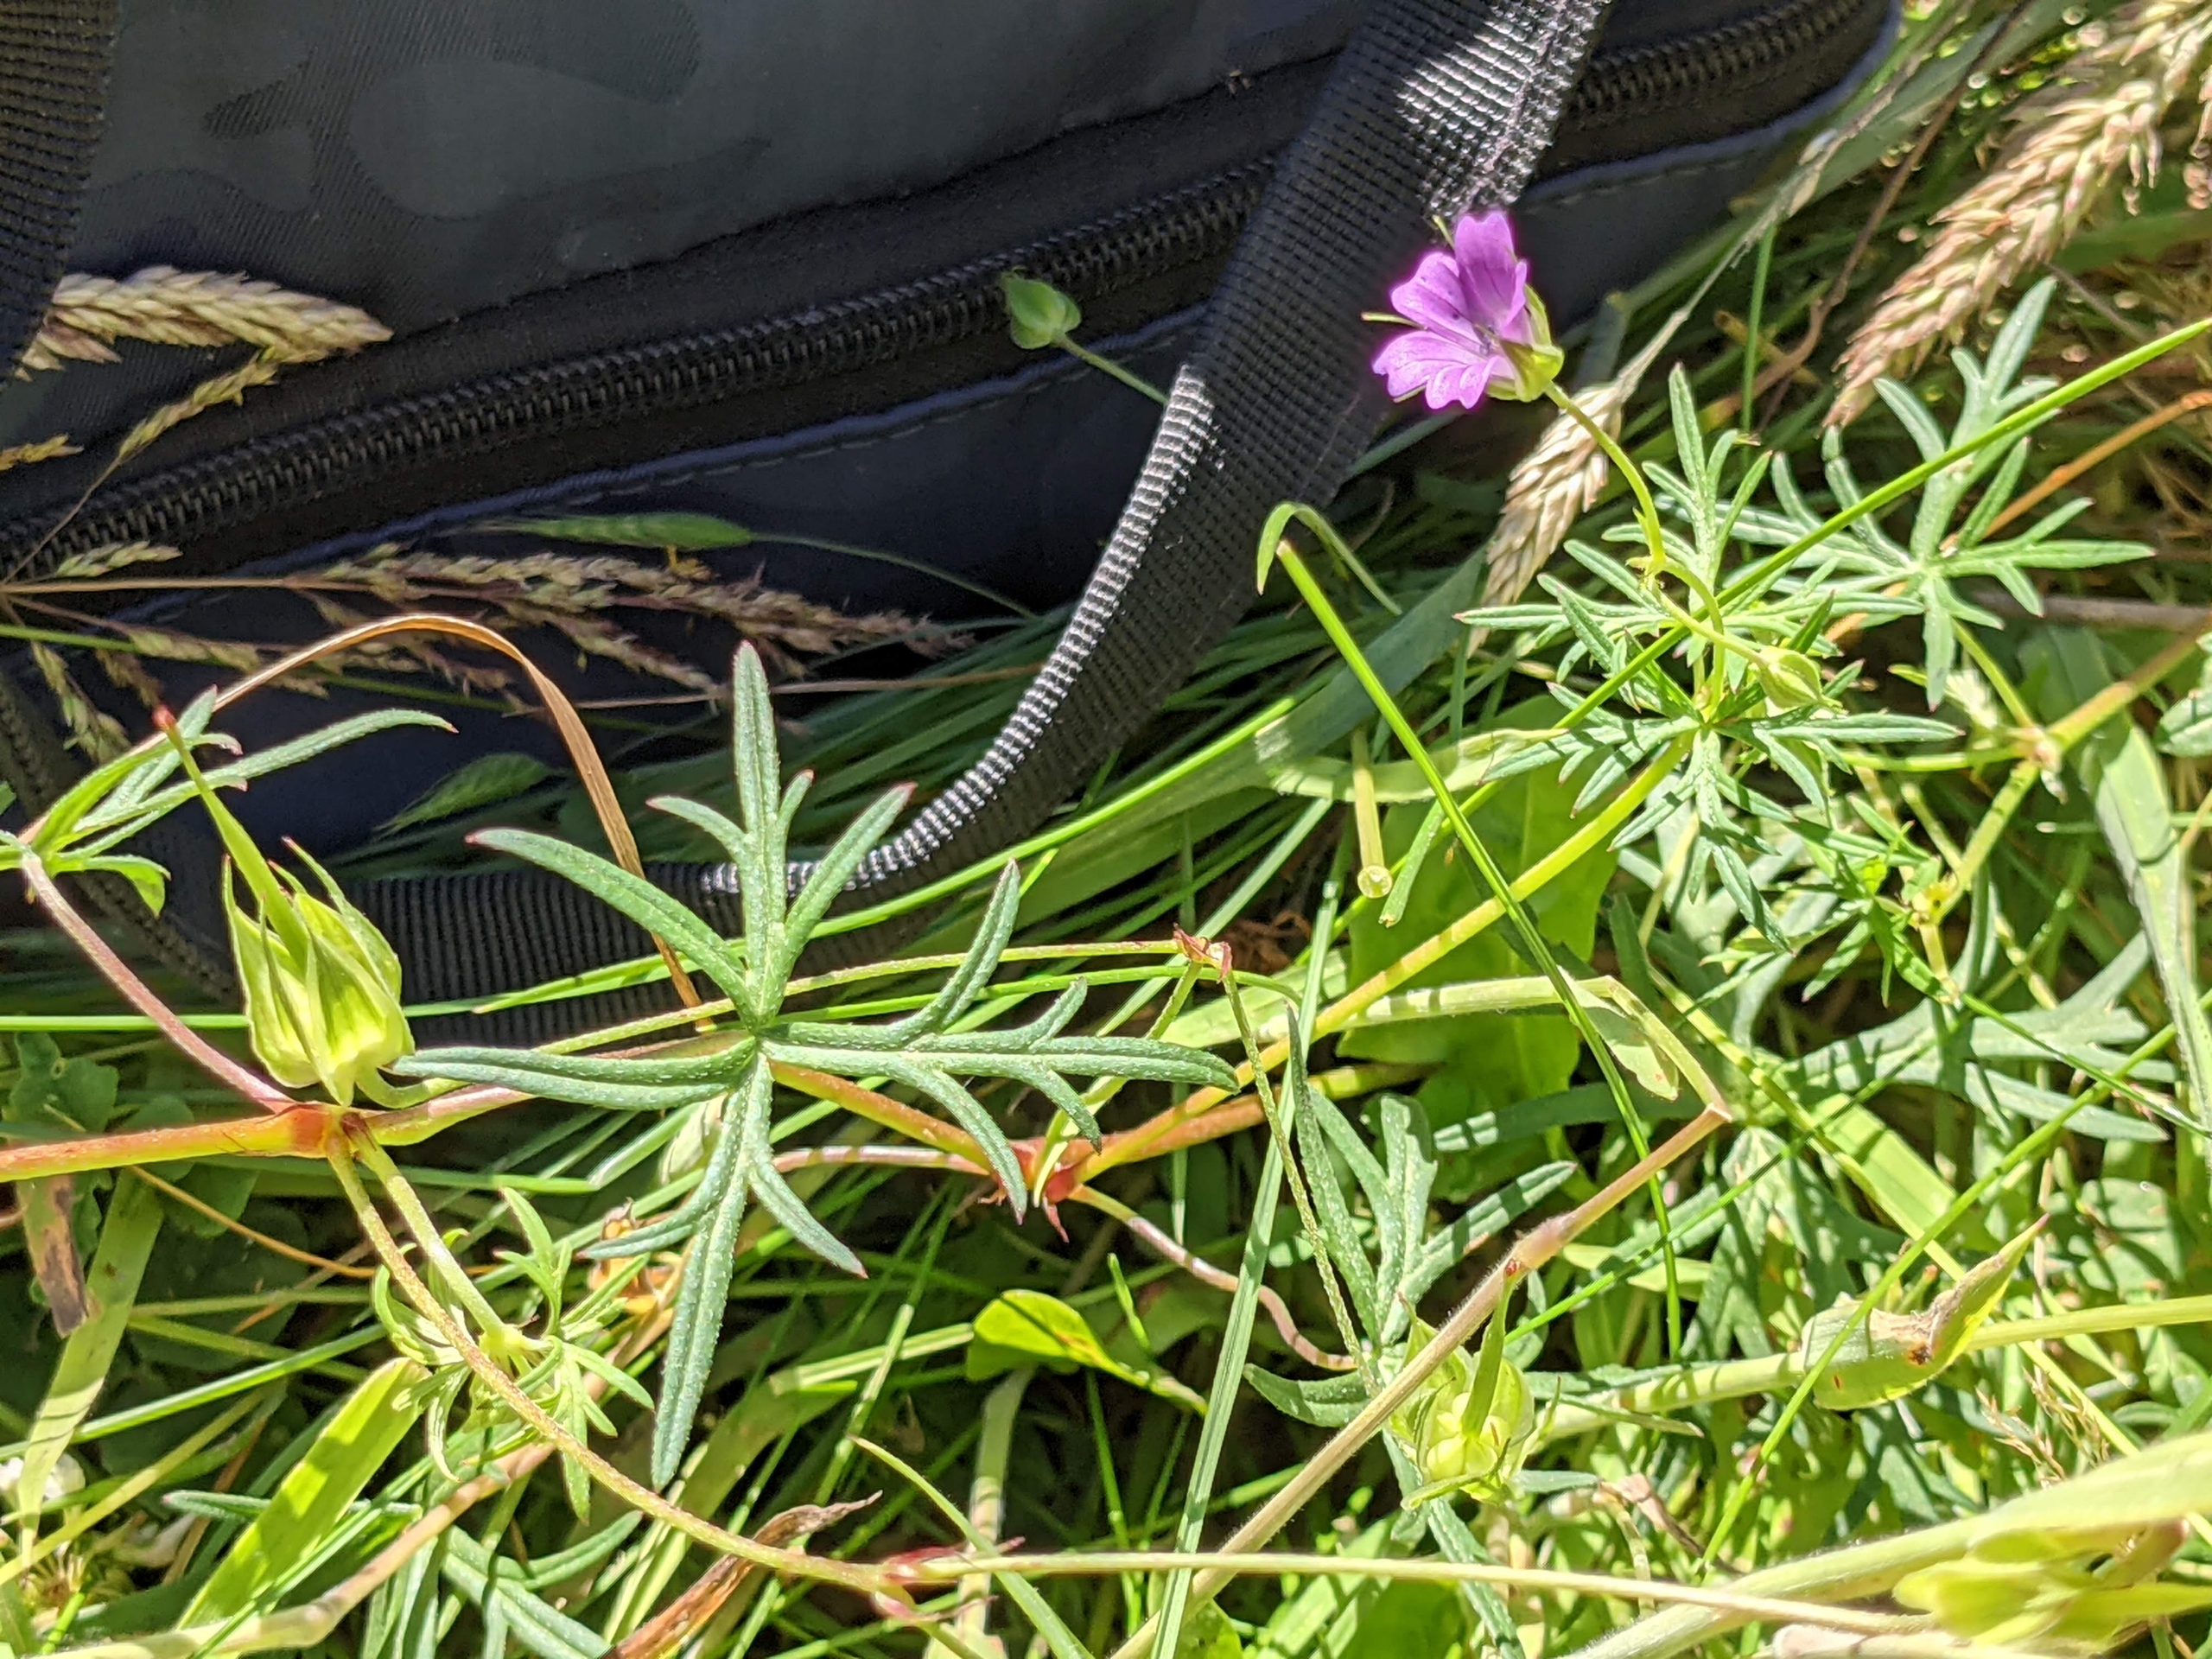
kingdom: Plantae
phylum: Tracheophyta
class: Magnoliopsida
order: Geraniales
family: Geraniaceae
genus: Geranium
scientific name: Geranium columbinum
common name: Storbægret storkenæb
